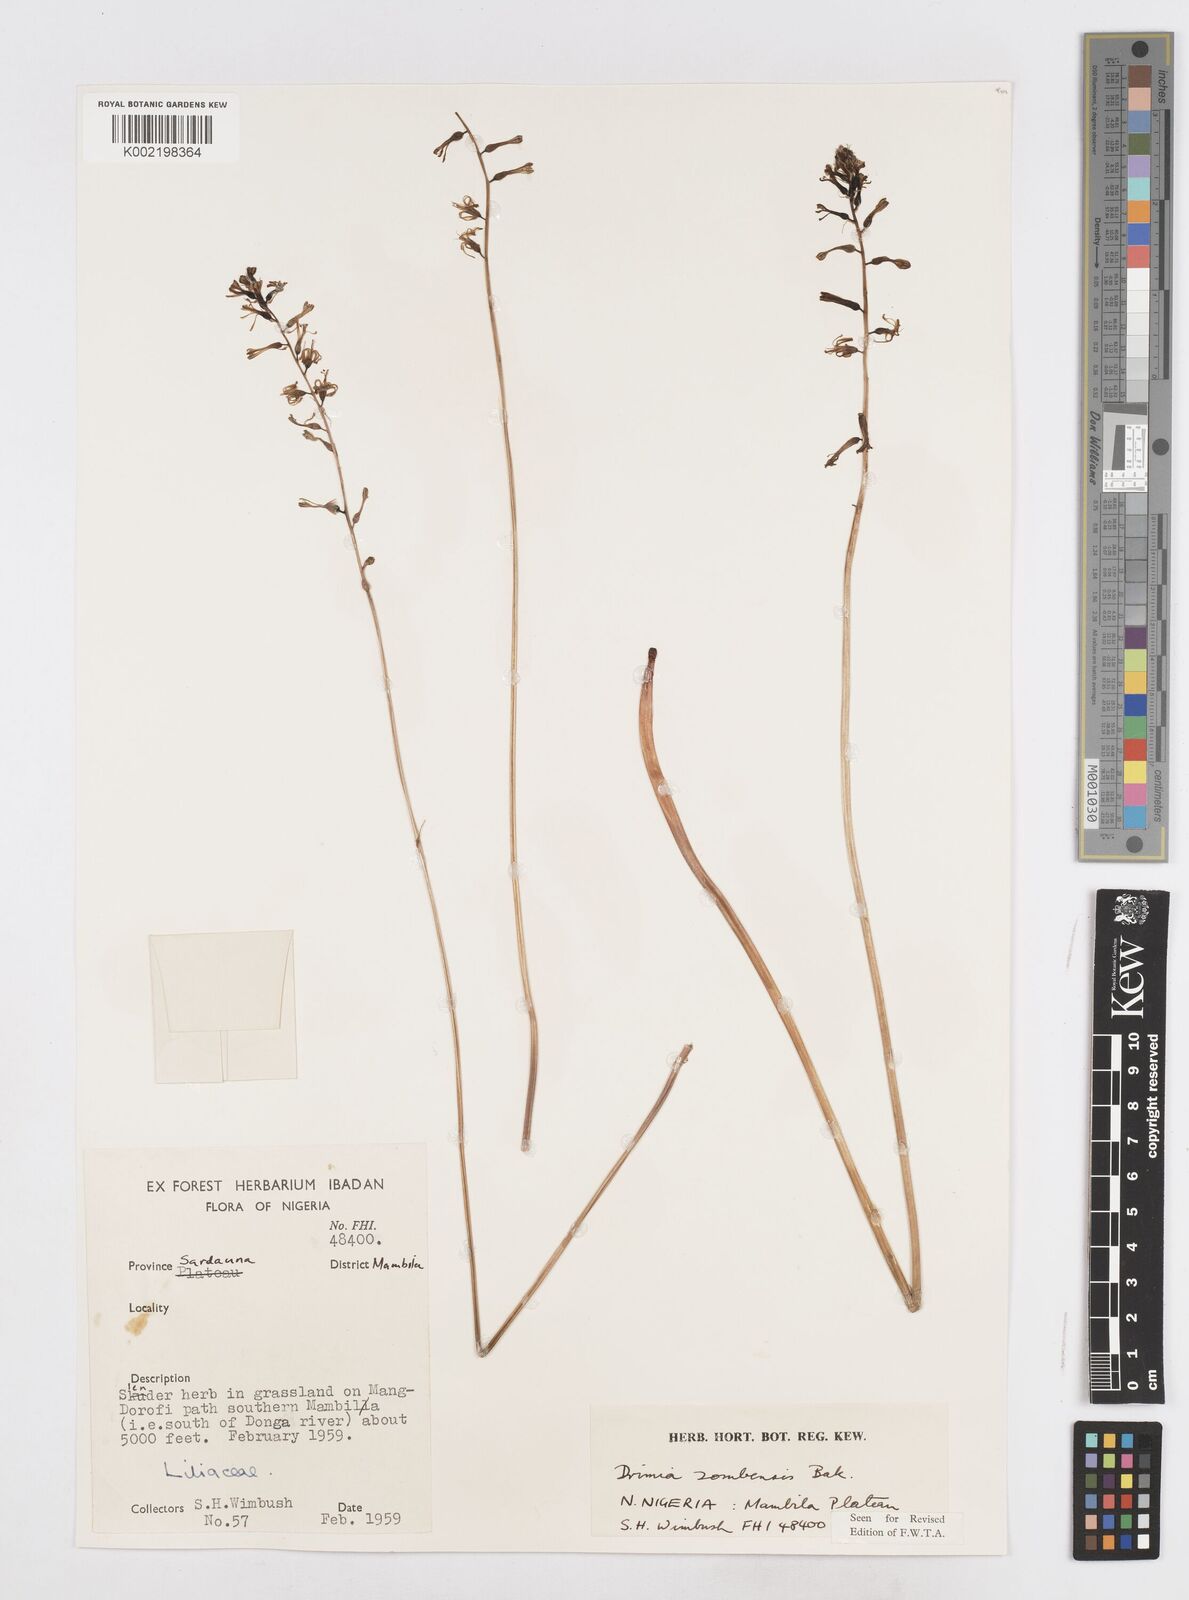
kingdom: Plantae
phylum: Tracheophyta
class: Liliopsida
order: Asparagales
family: Asparagaceae
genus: Drimia
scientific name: Drimia elata
